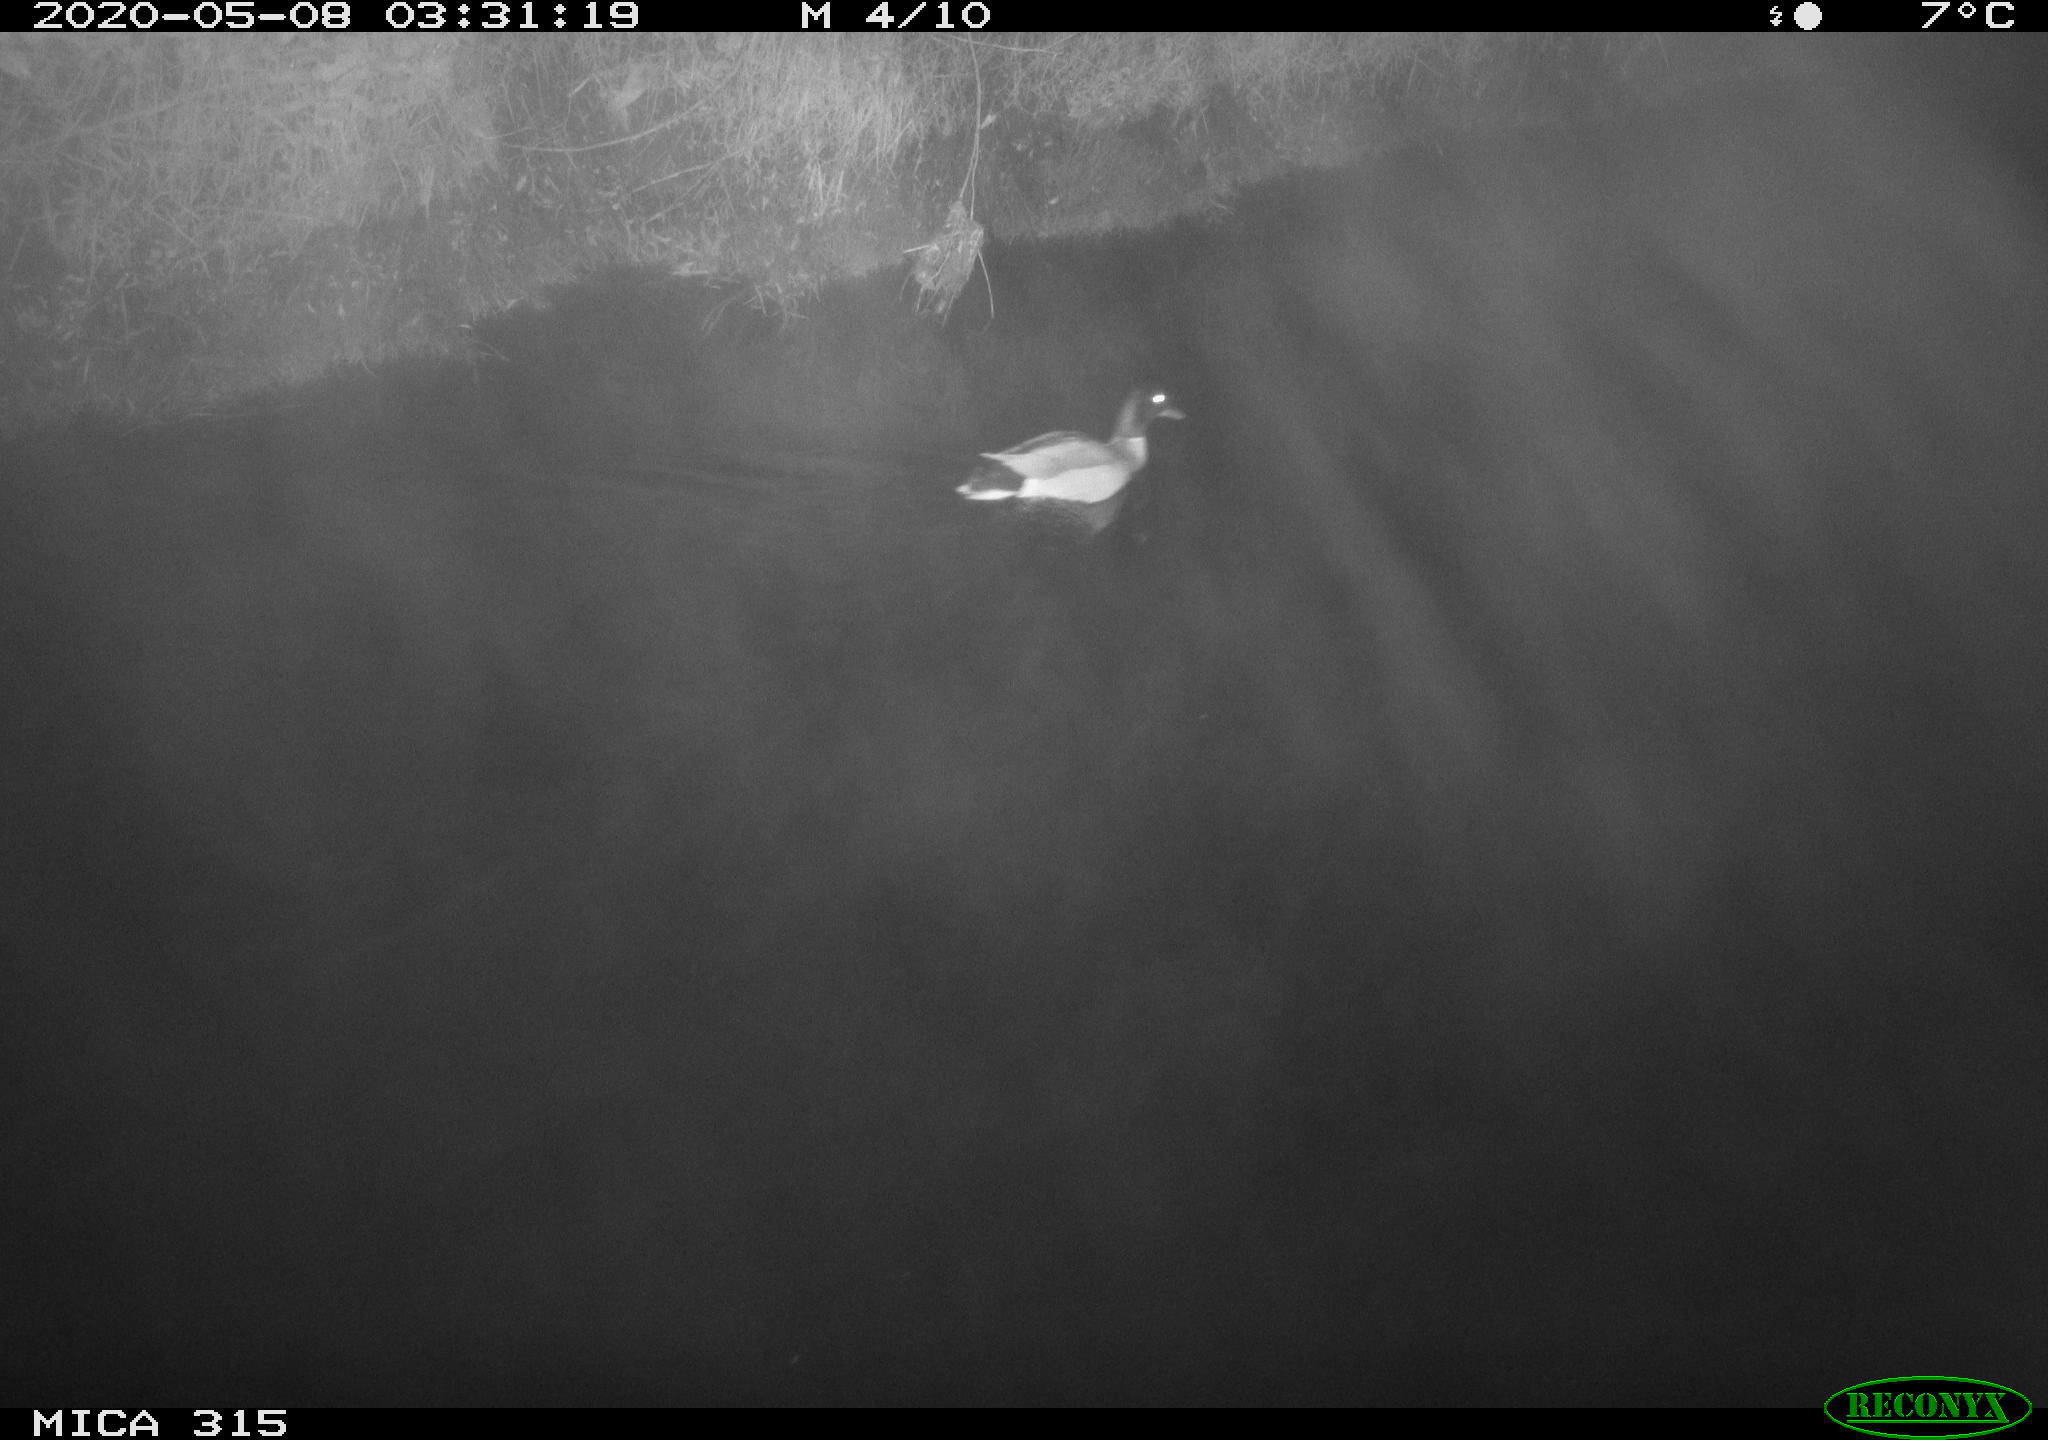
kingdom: Animalia
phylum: Chordata
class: Aves
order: Anseriformes
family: Anatidae
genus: Anas
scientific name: Anas platyrhynchos
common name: Mallard
